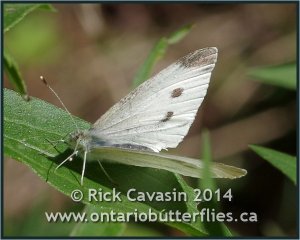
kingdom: Animalia
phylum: Arthropoda
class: Insecta
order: Lepidoptera
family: Pieridae
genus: Pieris
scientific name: Pieris rapae
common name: Cabbage White
